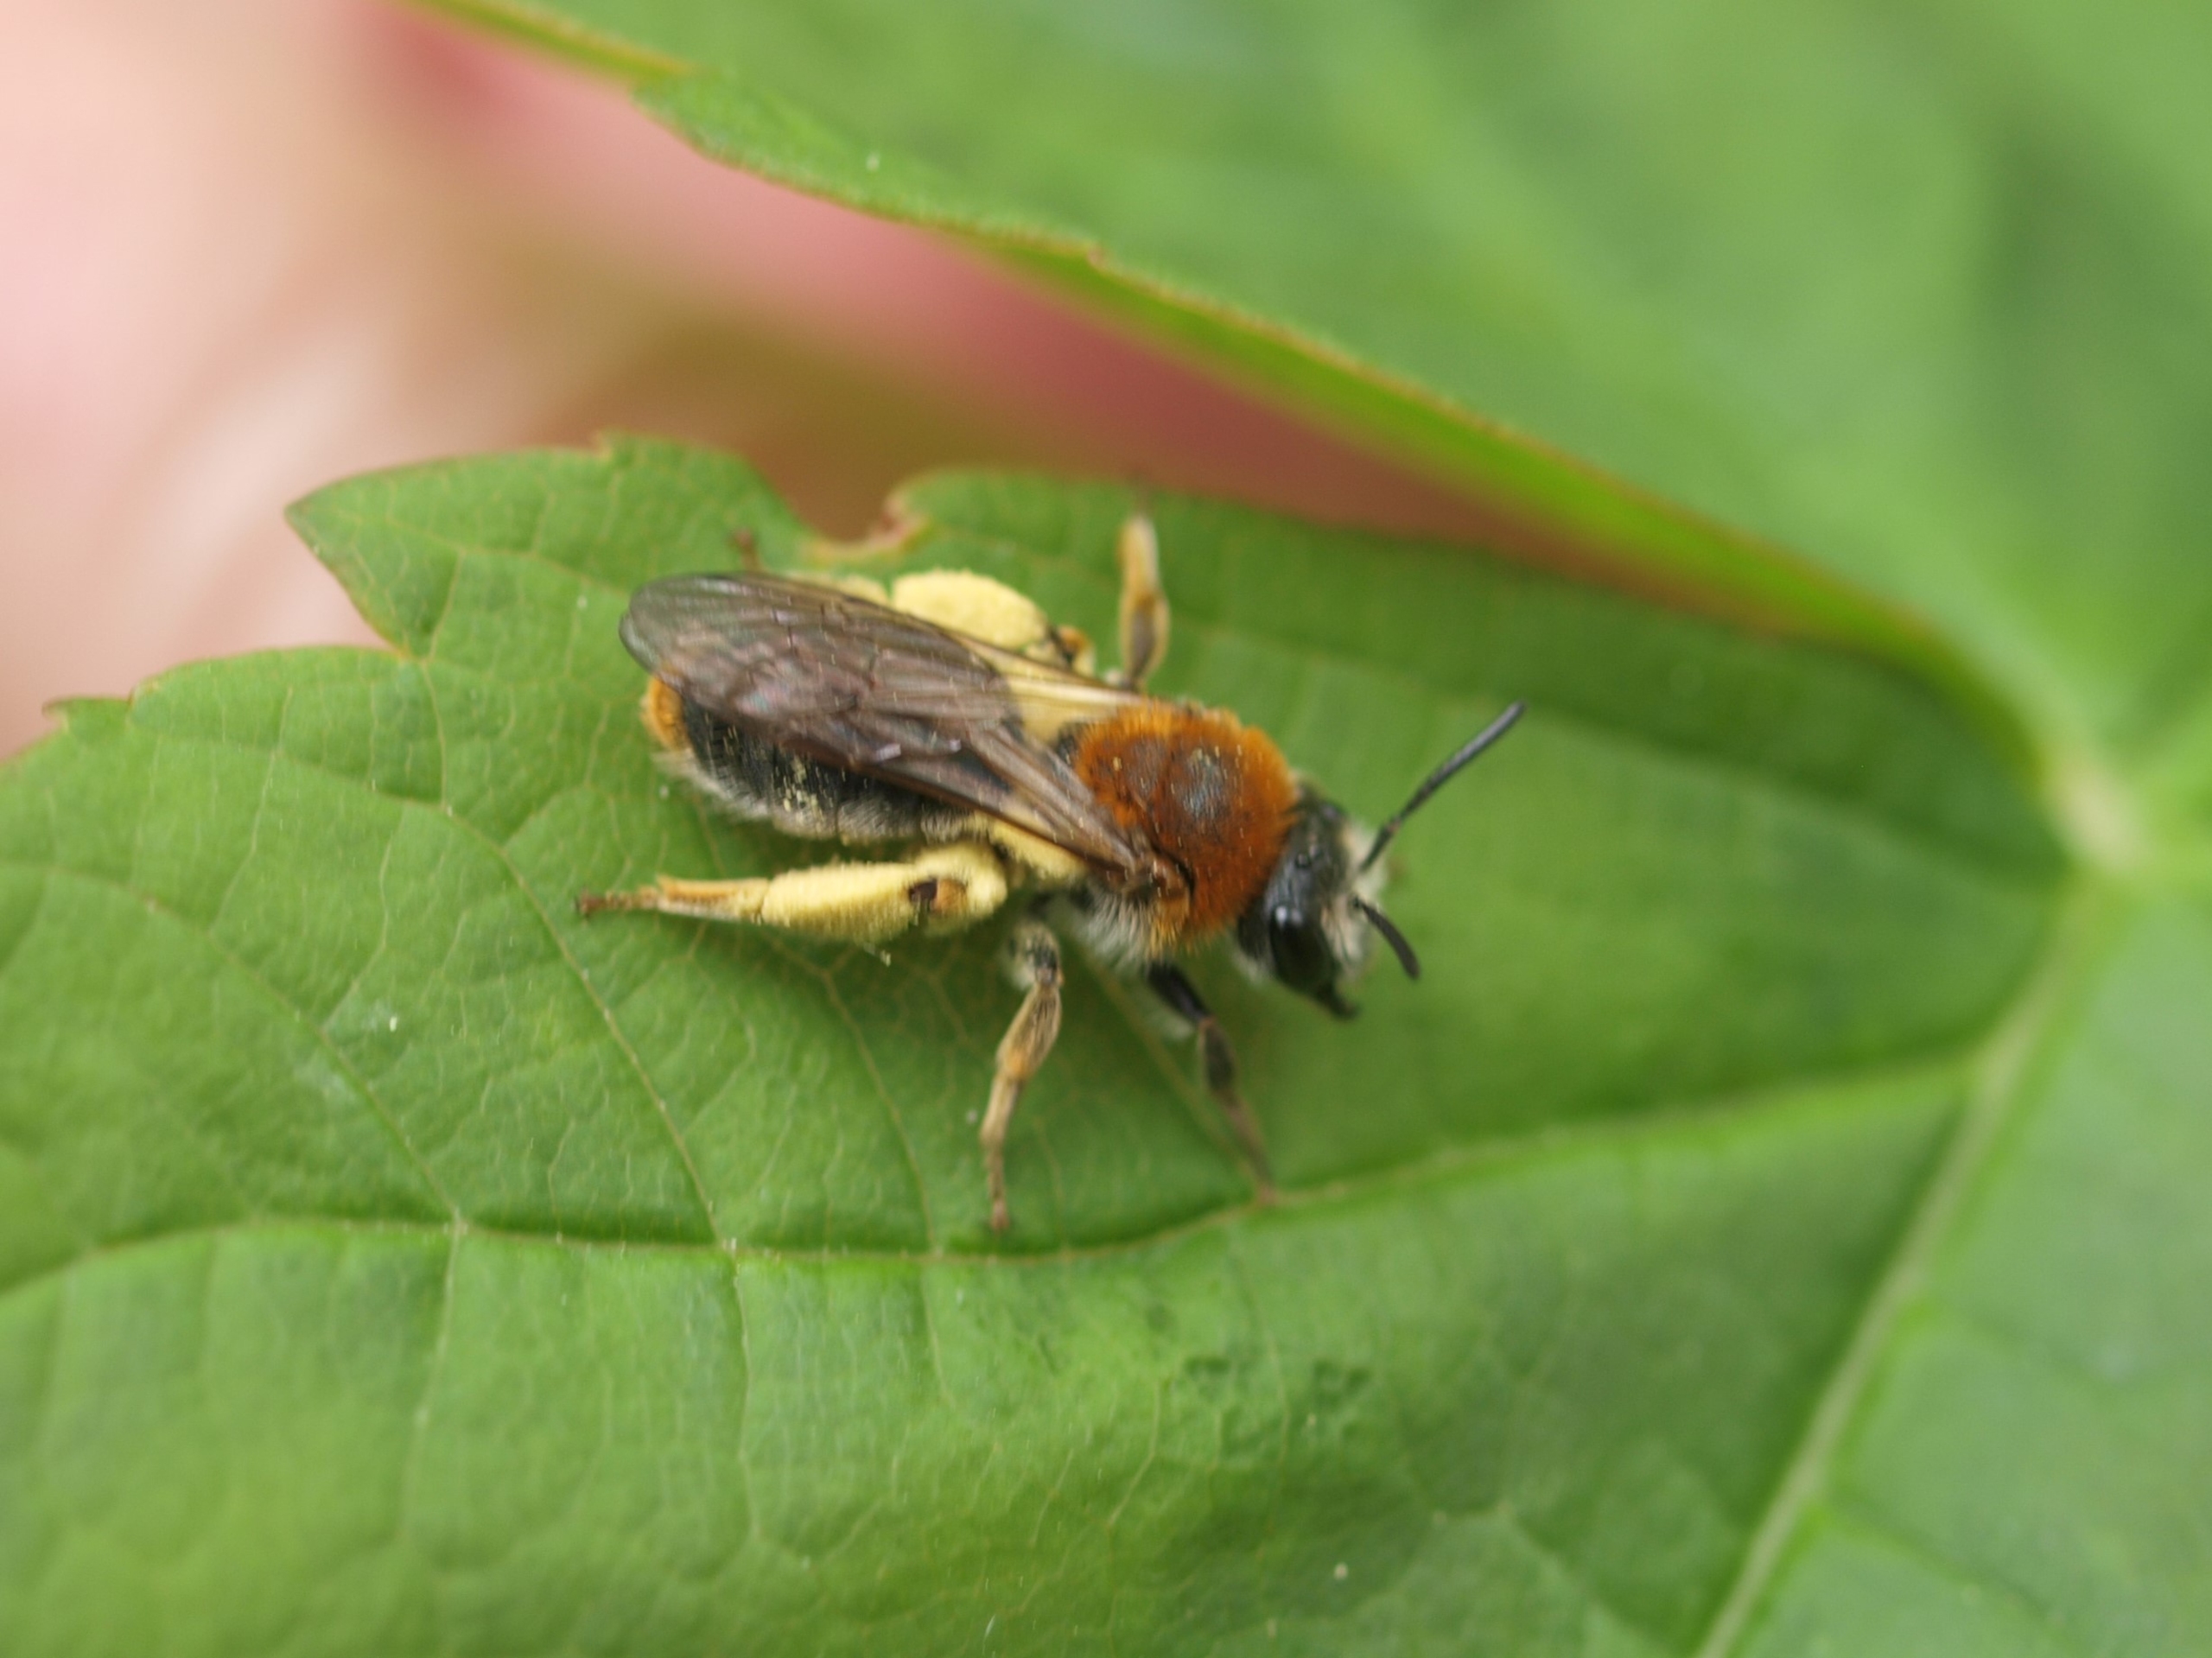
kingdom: Animalia
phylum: Arthropoda
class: Insecta
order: Hymenoptera
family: Andrenidae
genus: Andrena
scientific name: Andrena haemorrhoa
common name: Havejordbi
